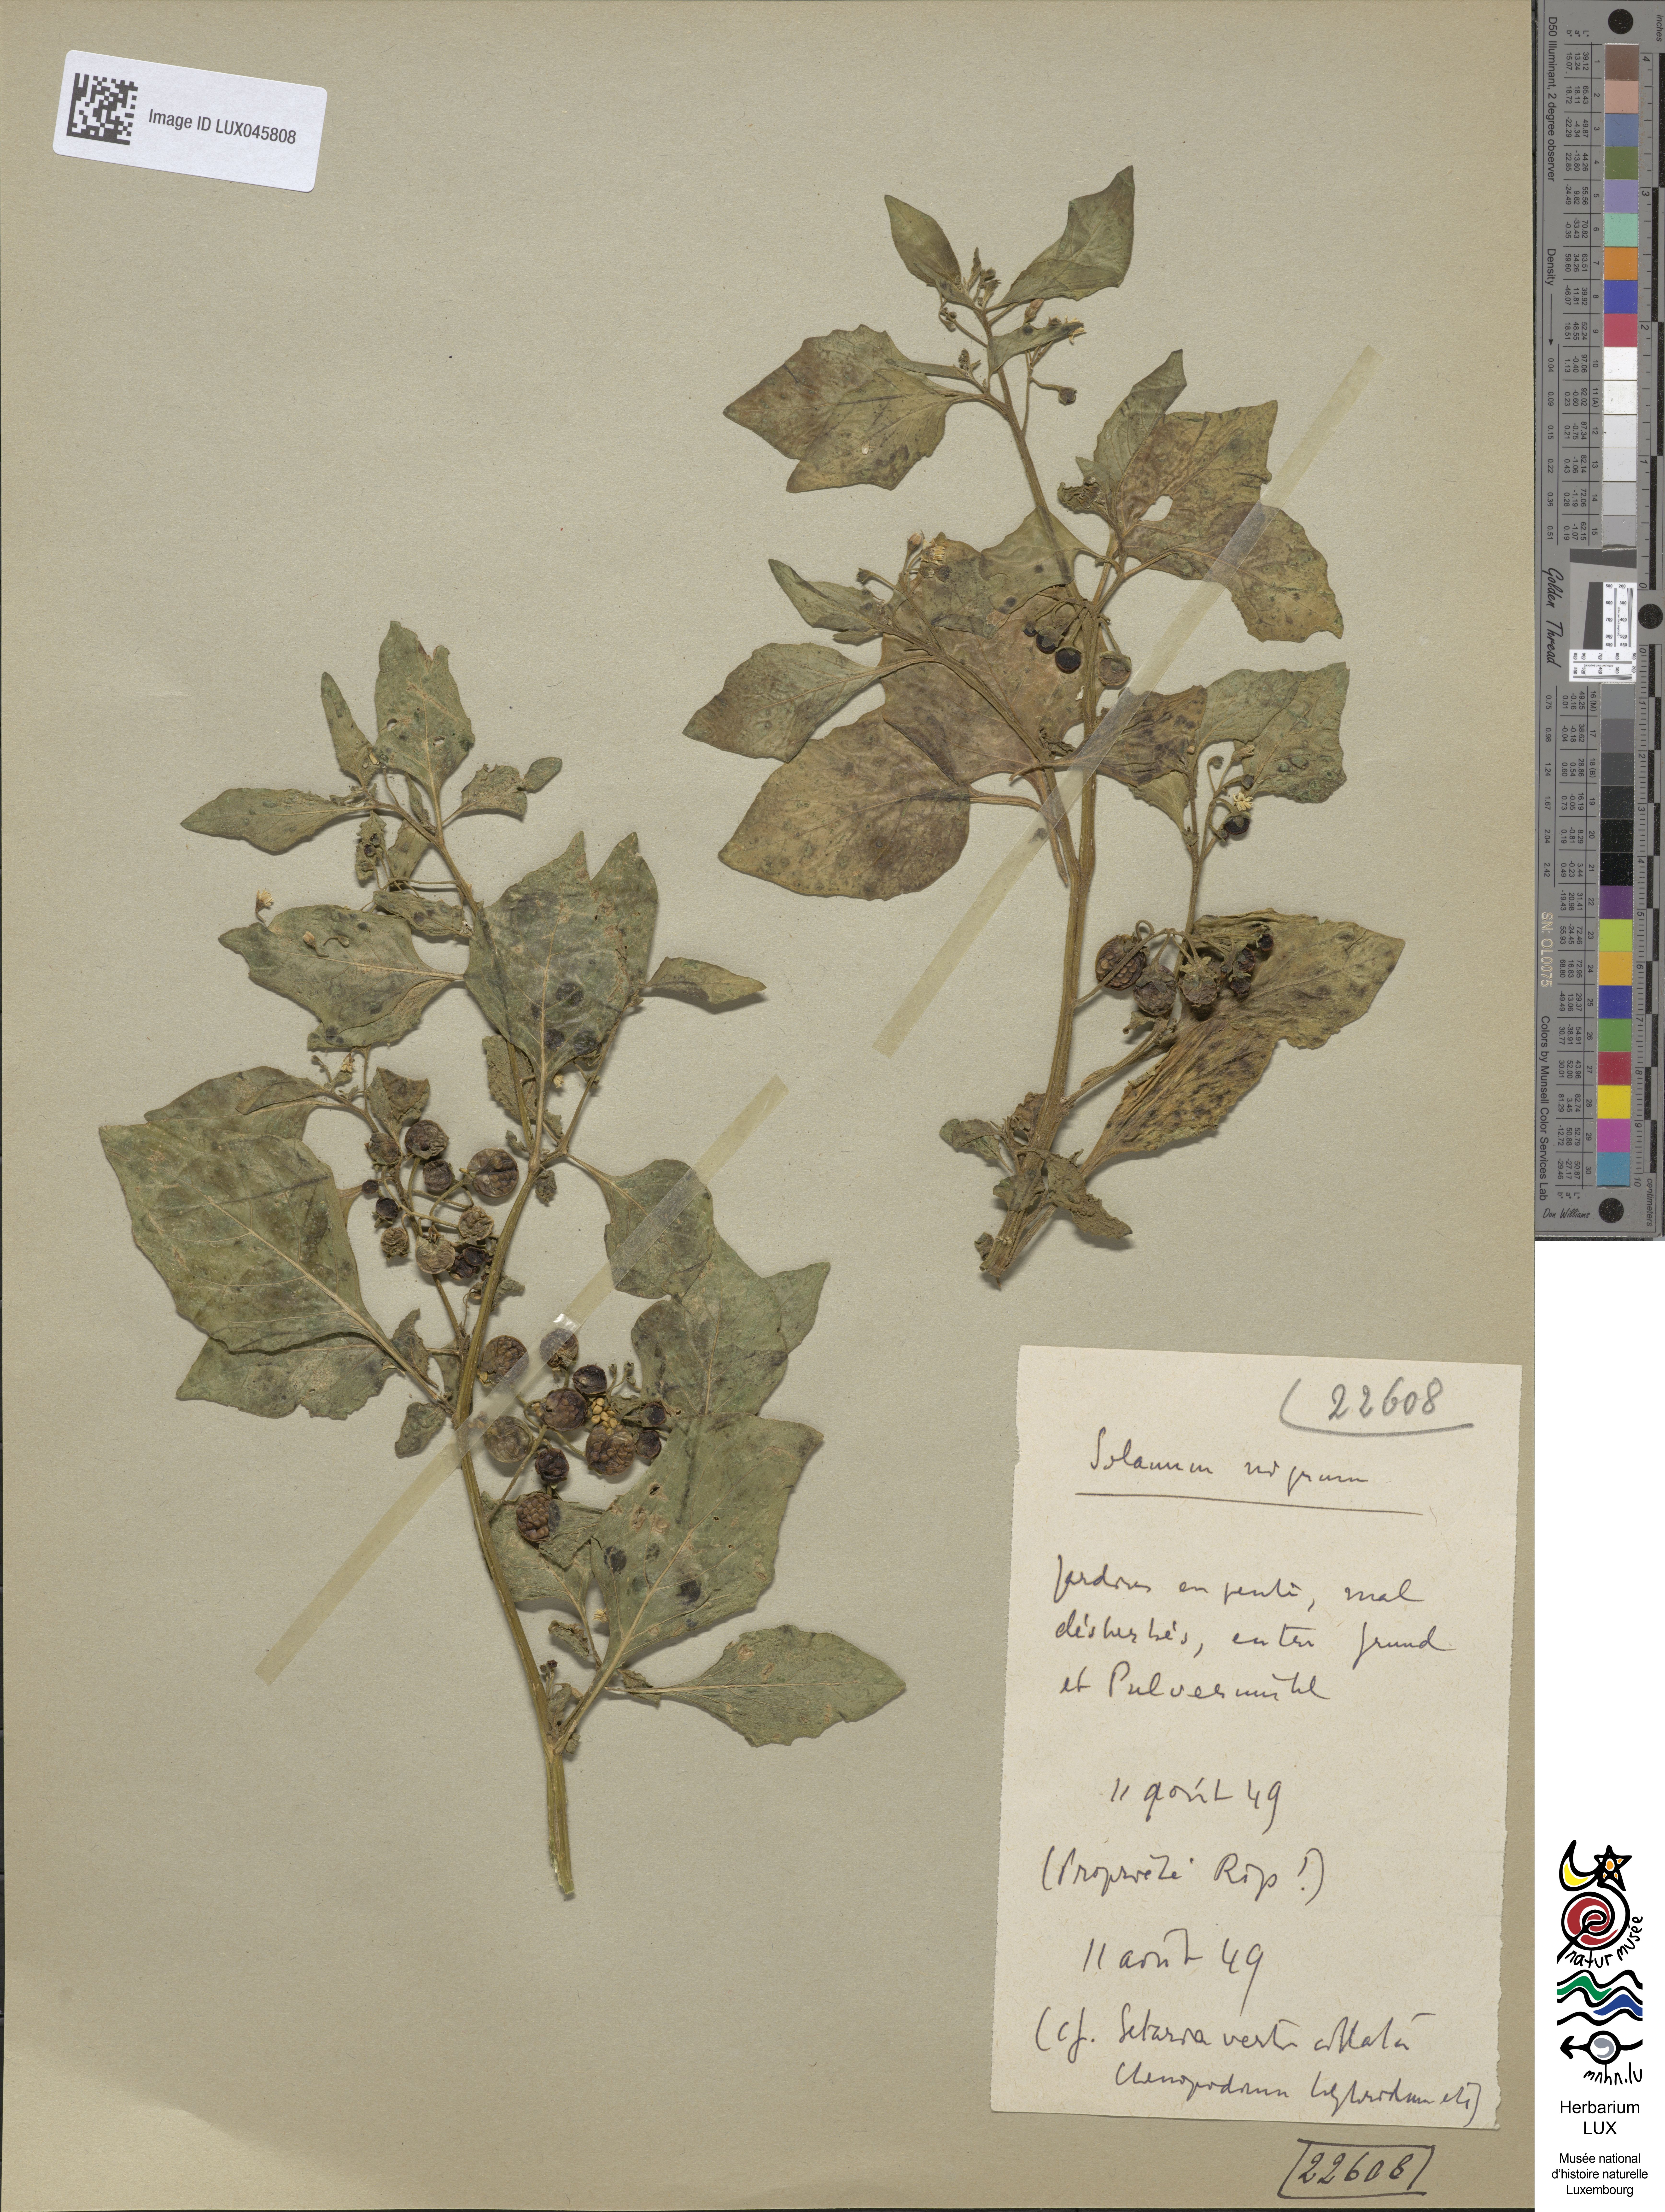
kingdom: Plantae
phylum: Tracheophyta
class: Magnoliopsida
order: Solanales
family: Solanaceae
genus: Solanum
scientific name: Solanum nigrum
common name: Black nightshade
